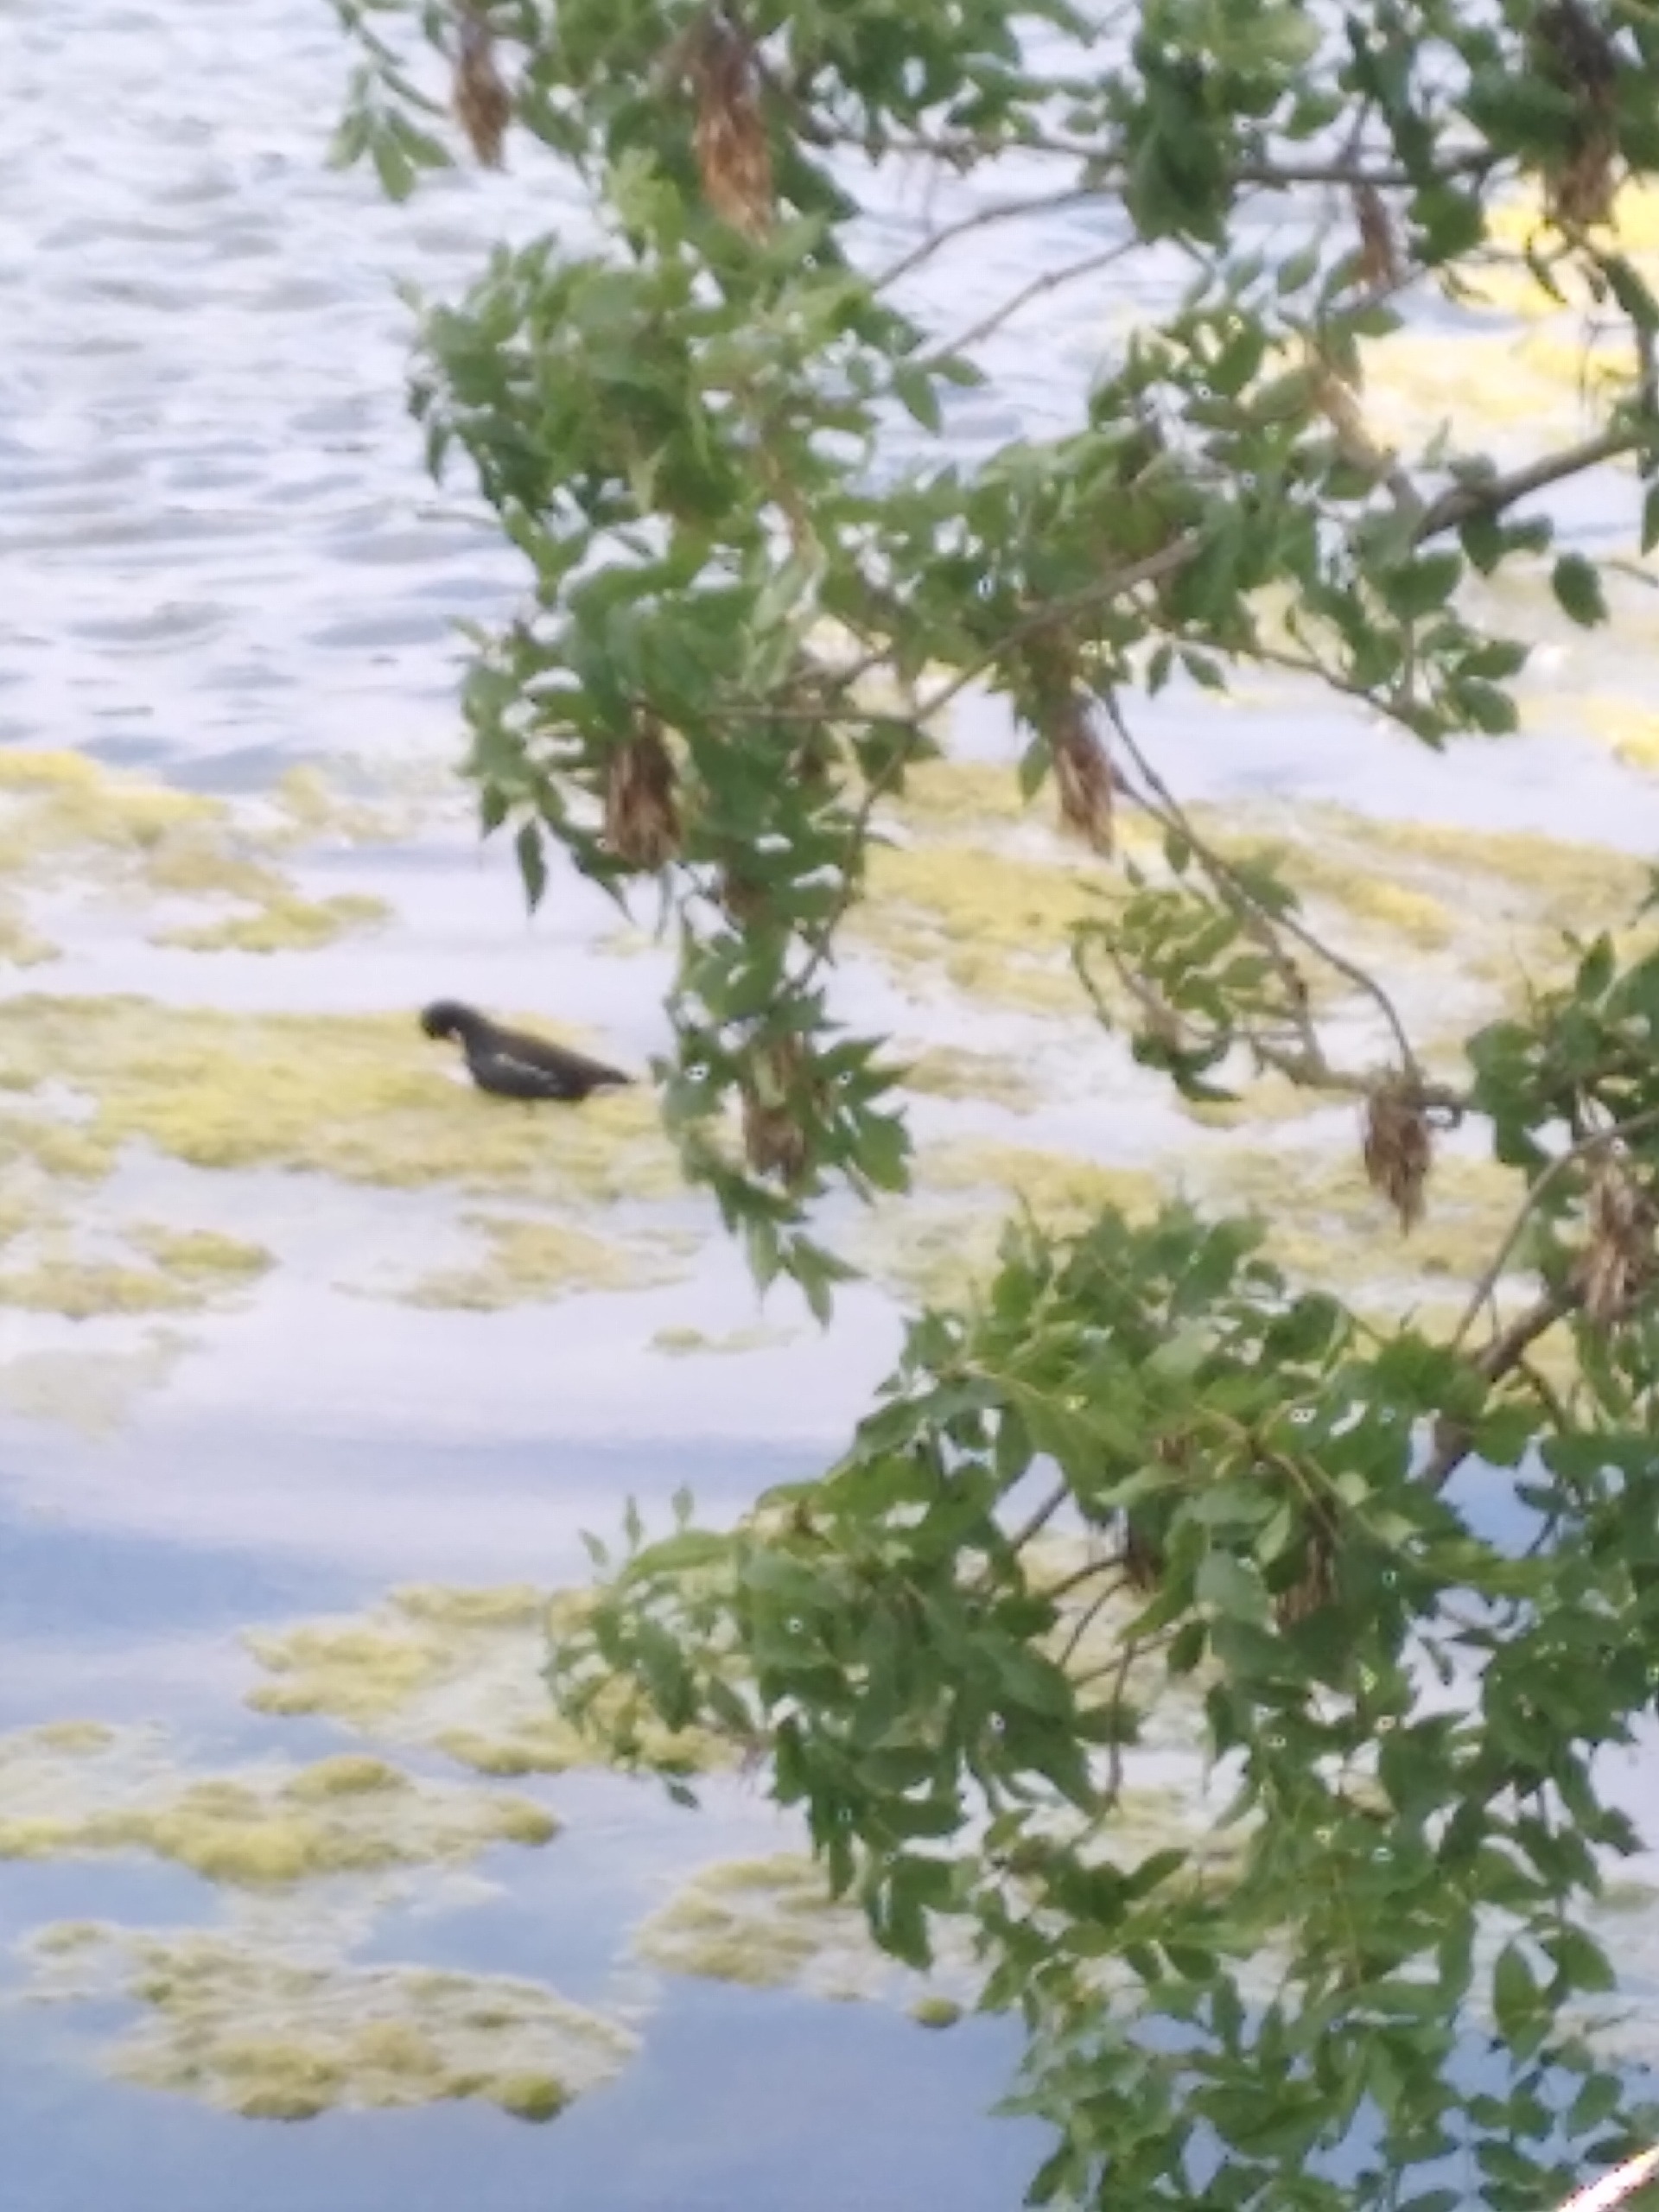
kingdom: Animalia
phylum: Chordata
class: Aves
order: Gruiformes
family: Rallidae
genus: Gallinula
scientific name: Gallinula chloropus
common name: Grønbenet rørhøne
